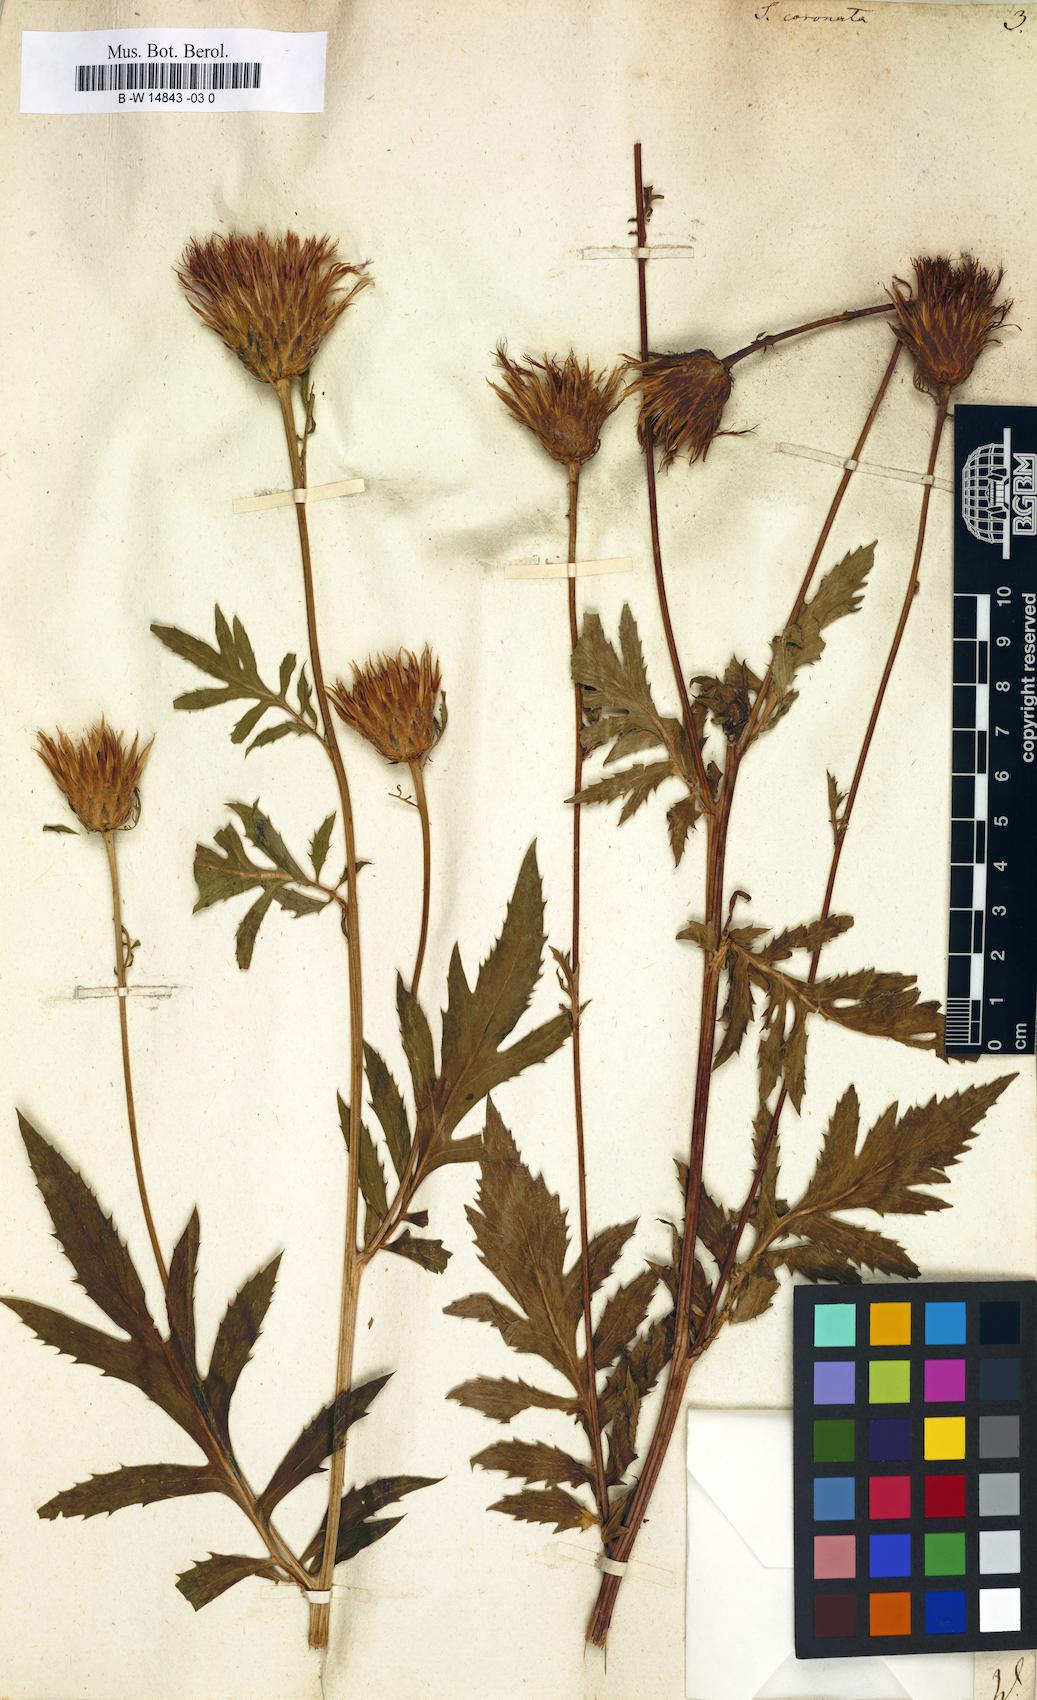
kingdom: Plantae
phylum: Tracheophyta
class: Magnoliopsida
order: Asterales
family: Asteraceae
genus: Serratula
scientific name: Serratula coronata
